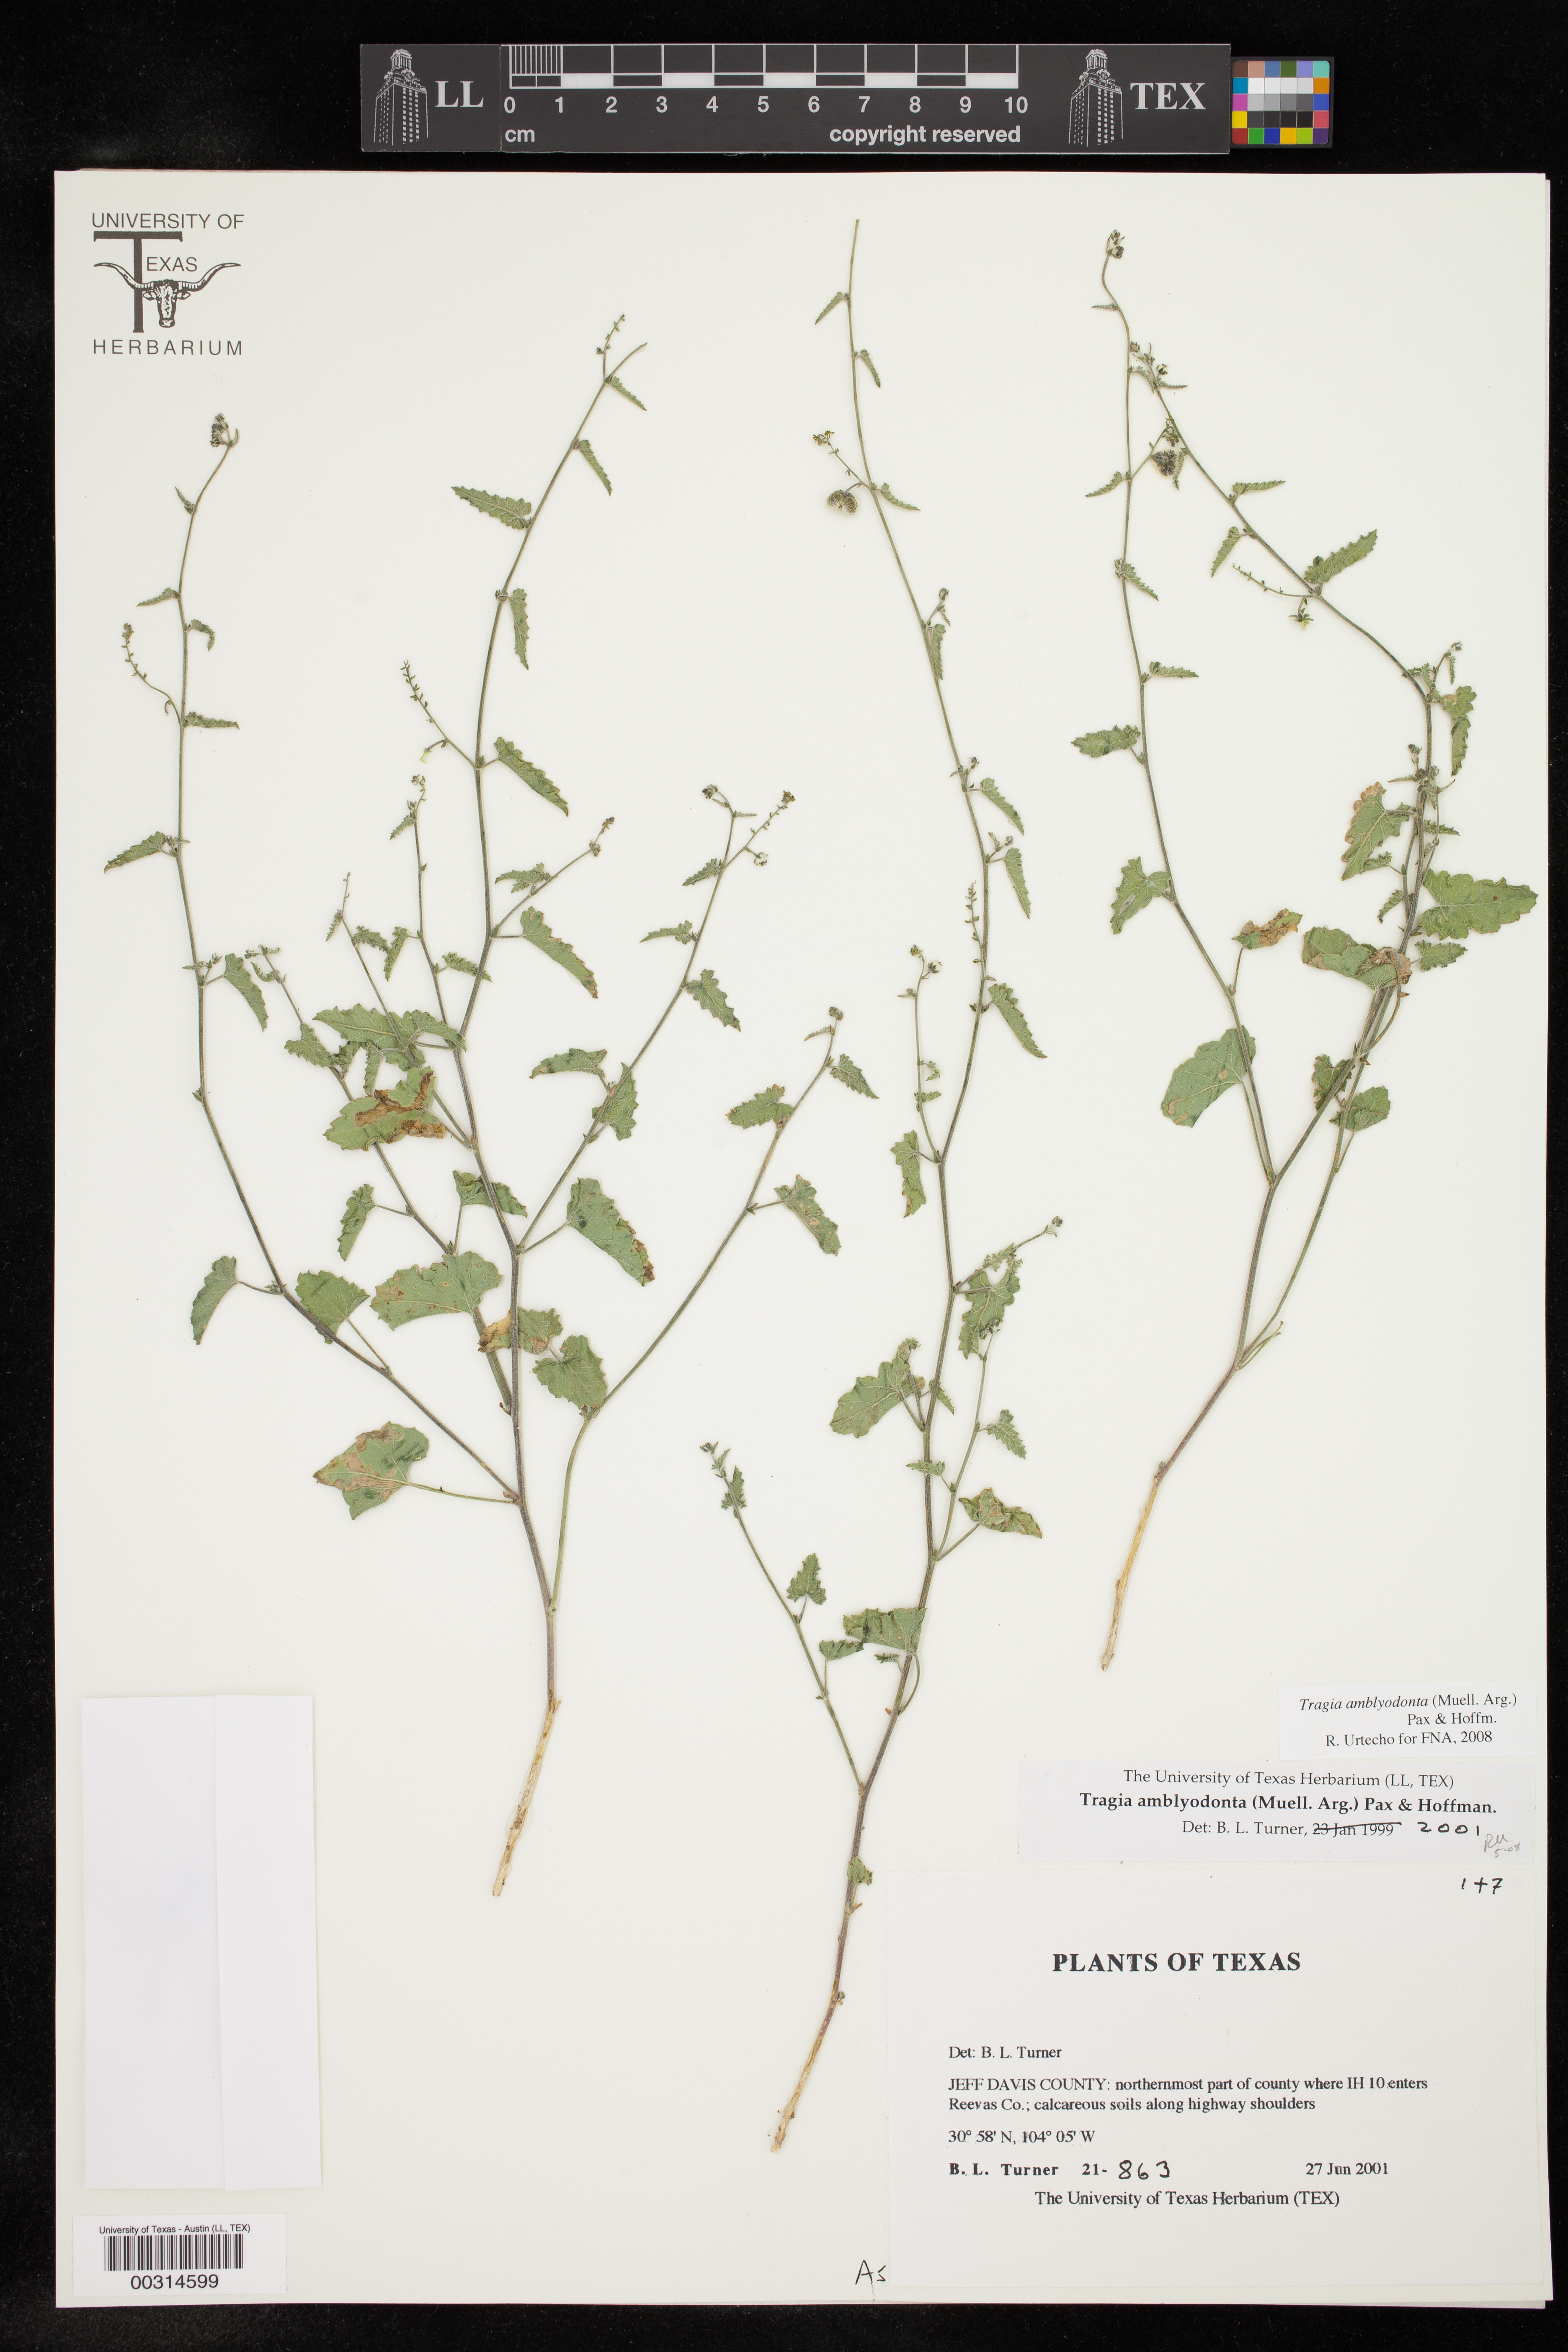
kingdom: Plantae
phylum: Tracheophyta
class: Magnoliopsida
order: Malpighiales
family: Euphorbiaceae
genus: Tragia
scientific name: Tragia amblyodonta
